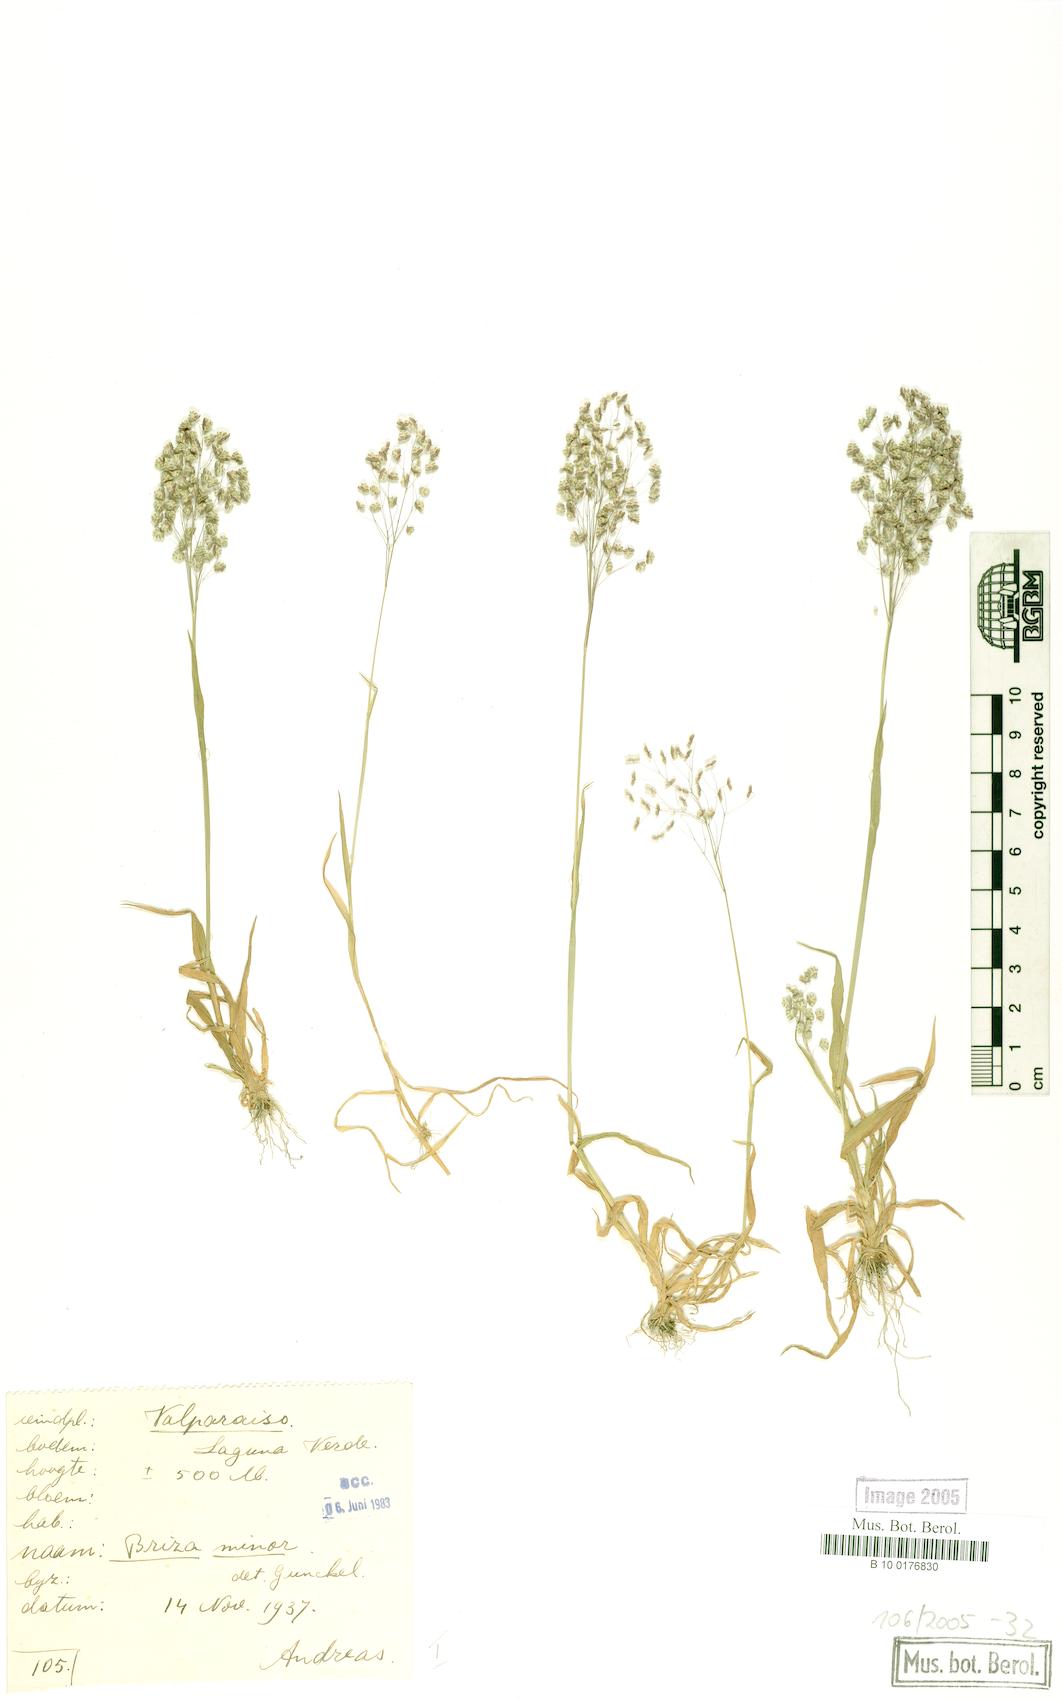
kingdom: Plantae
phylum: Tracheophyta
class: Liliopsida
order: Poales
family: Poaceae
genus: Briza
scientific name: Briza minor
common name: Lesser quaking-grass
